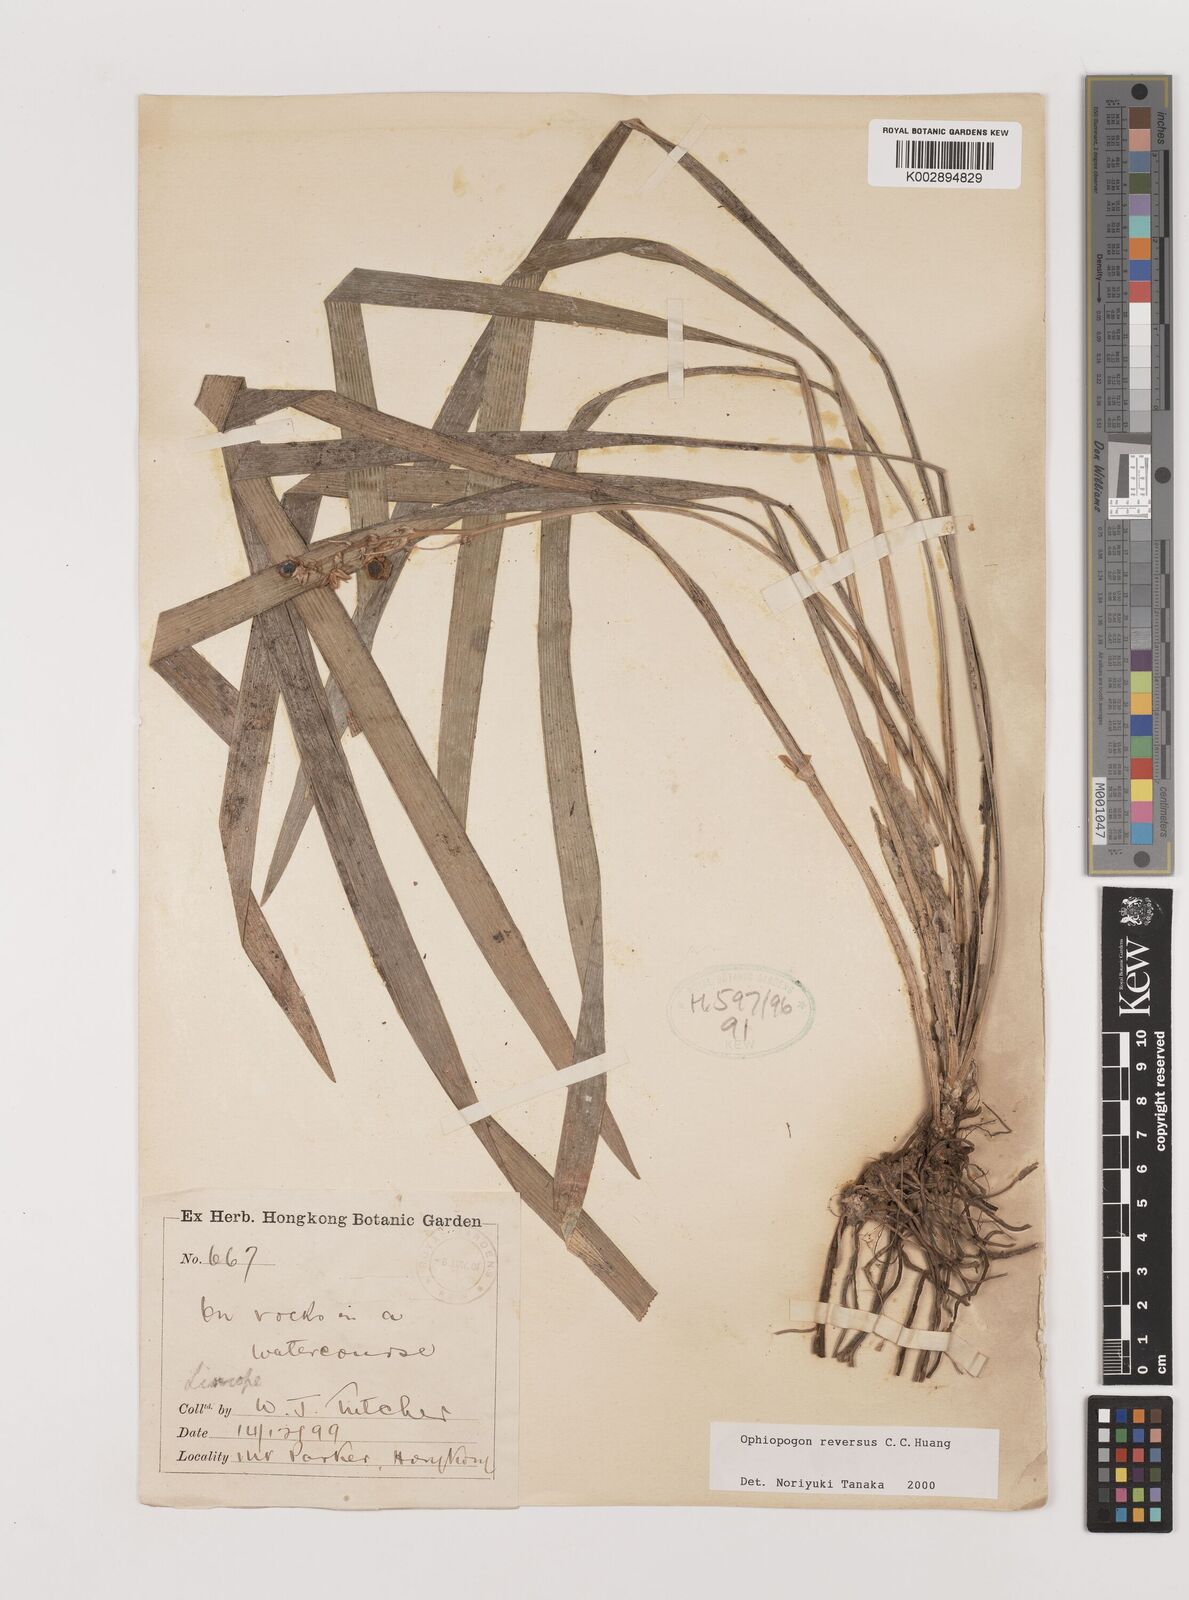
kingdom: Plantae
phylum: Tracheophyta
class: Liliopsida
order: Asparagales
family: Asparagaceae
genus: Ophiopogon
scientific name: Ophiopogon reversus
